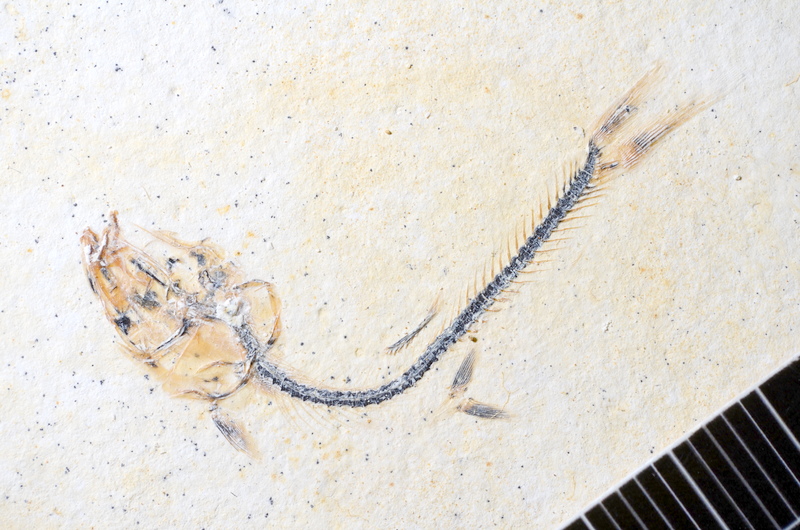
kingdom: Animalia
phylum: Chordata
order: Salmoniformes
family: Orthogonikleithridae
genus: Orthogonikleithrus
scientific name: Orthogonikleithrus hoelli
